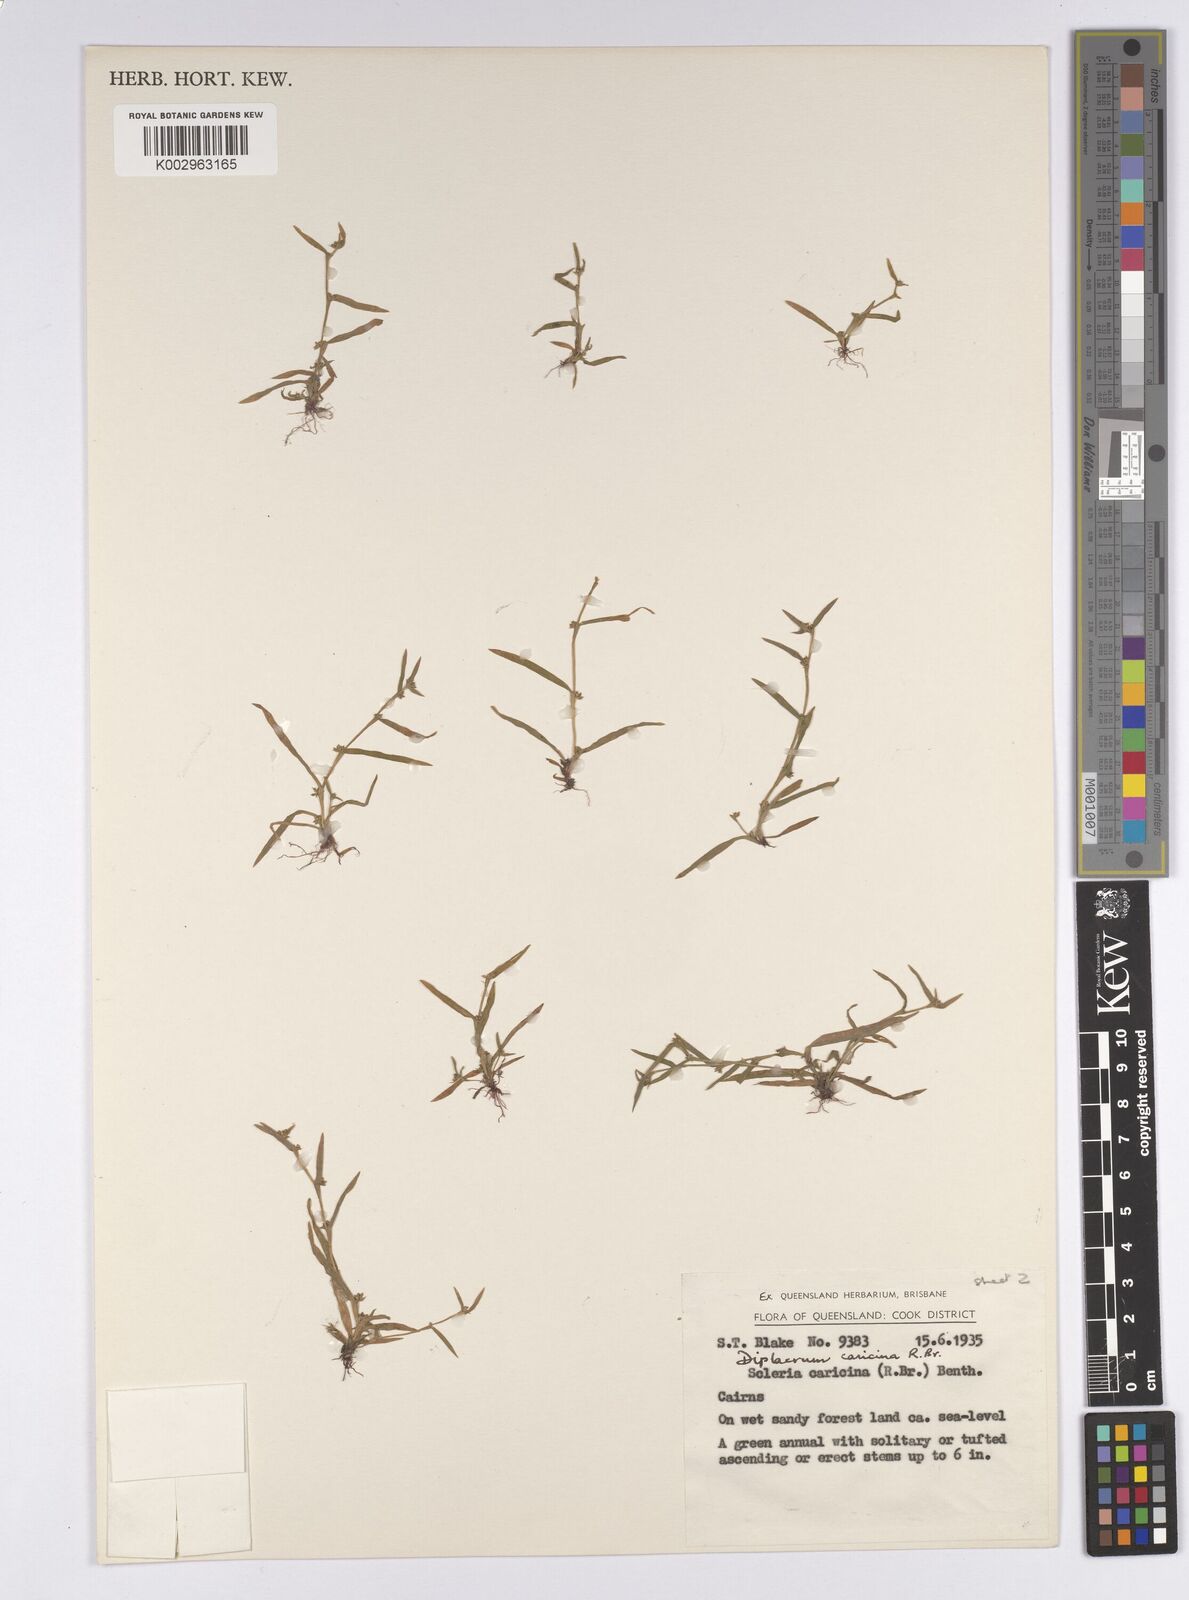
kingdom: Plantae
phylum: Tracheophyta
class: Liliopsida
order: Poales
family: Cyperaceae
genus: Diplacrum
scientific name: Diplacrum caricinum
